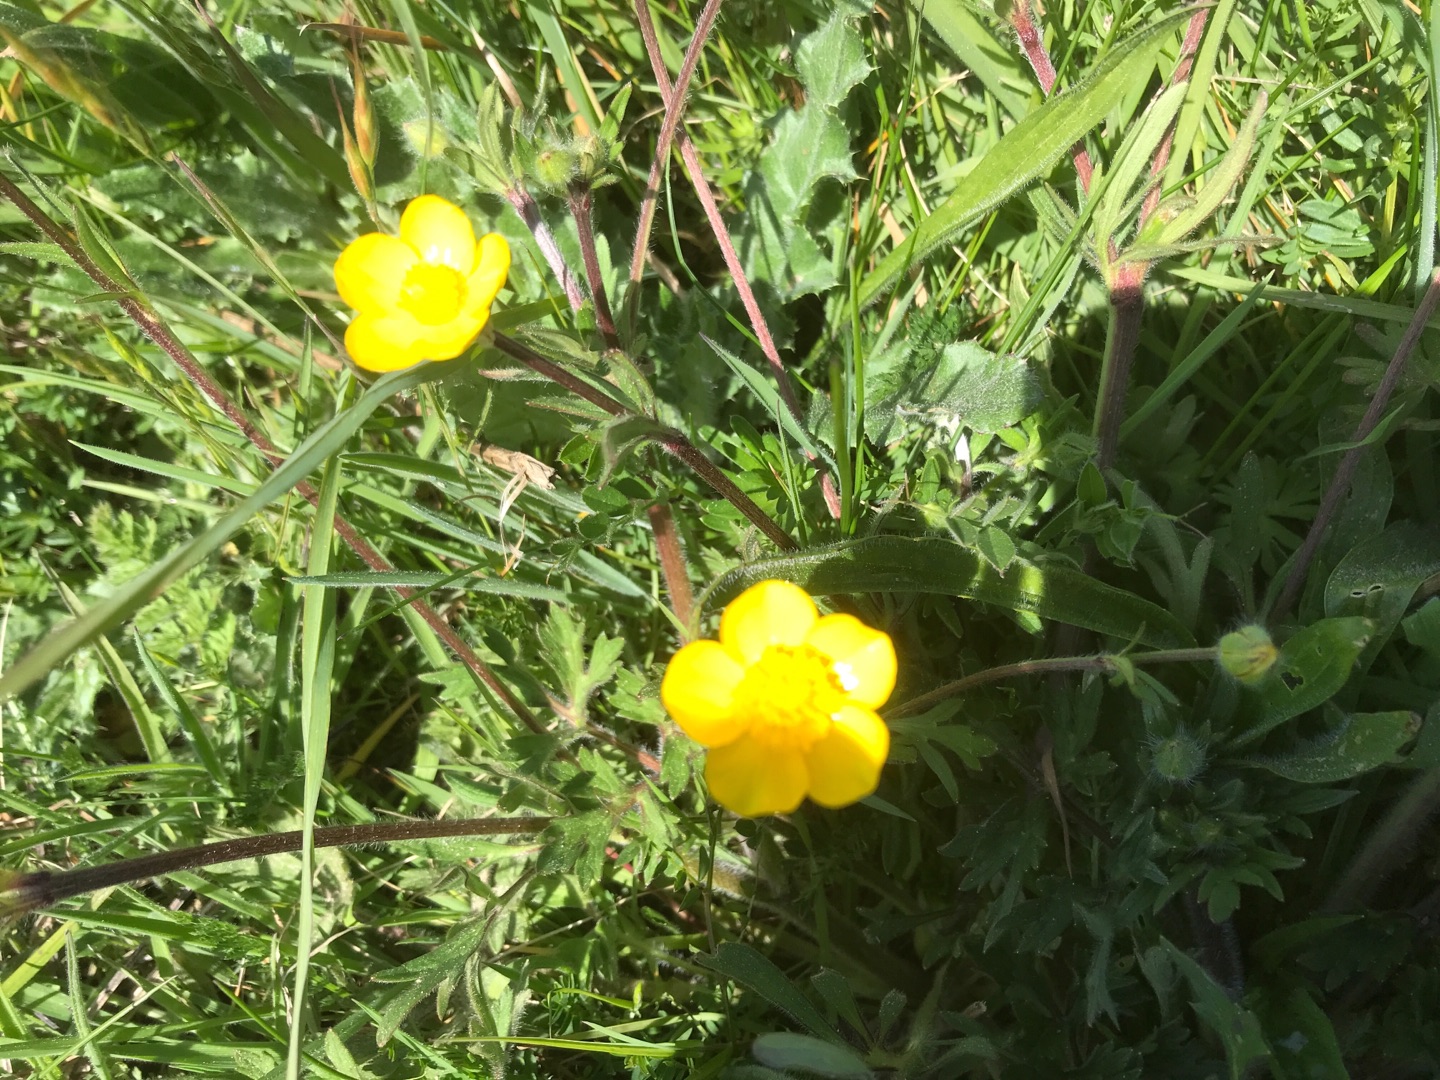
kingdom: Plantae
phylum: Tracheophyta
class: Magnoliopsida
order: Ranunculales
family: Ranunculaceae
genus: Ranunculus
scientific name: Ranunculus bulbosus
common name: Knold-ranunkel
